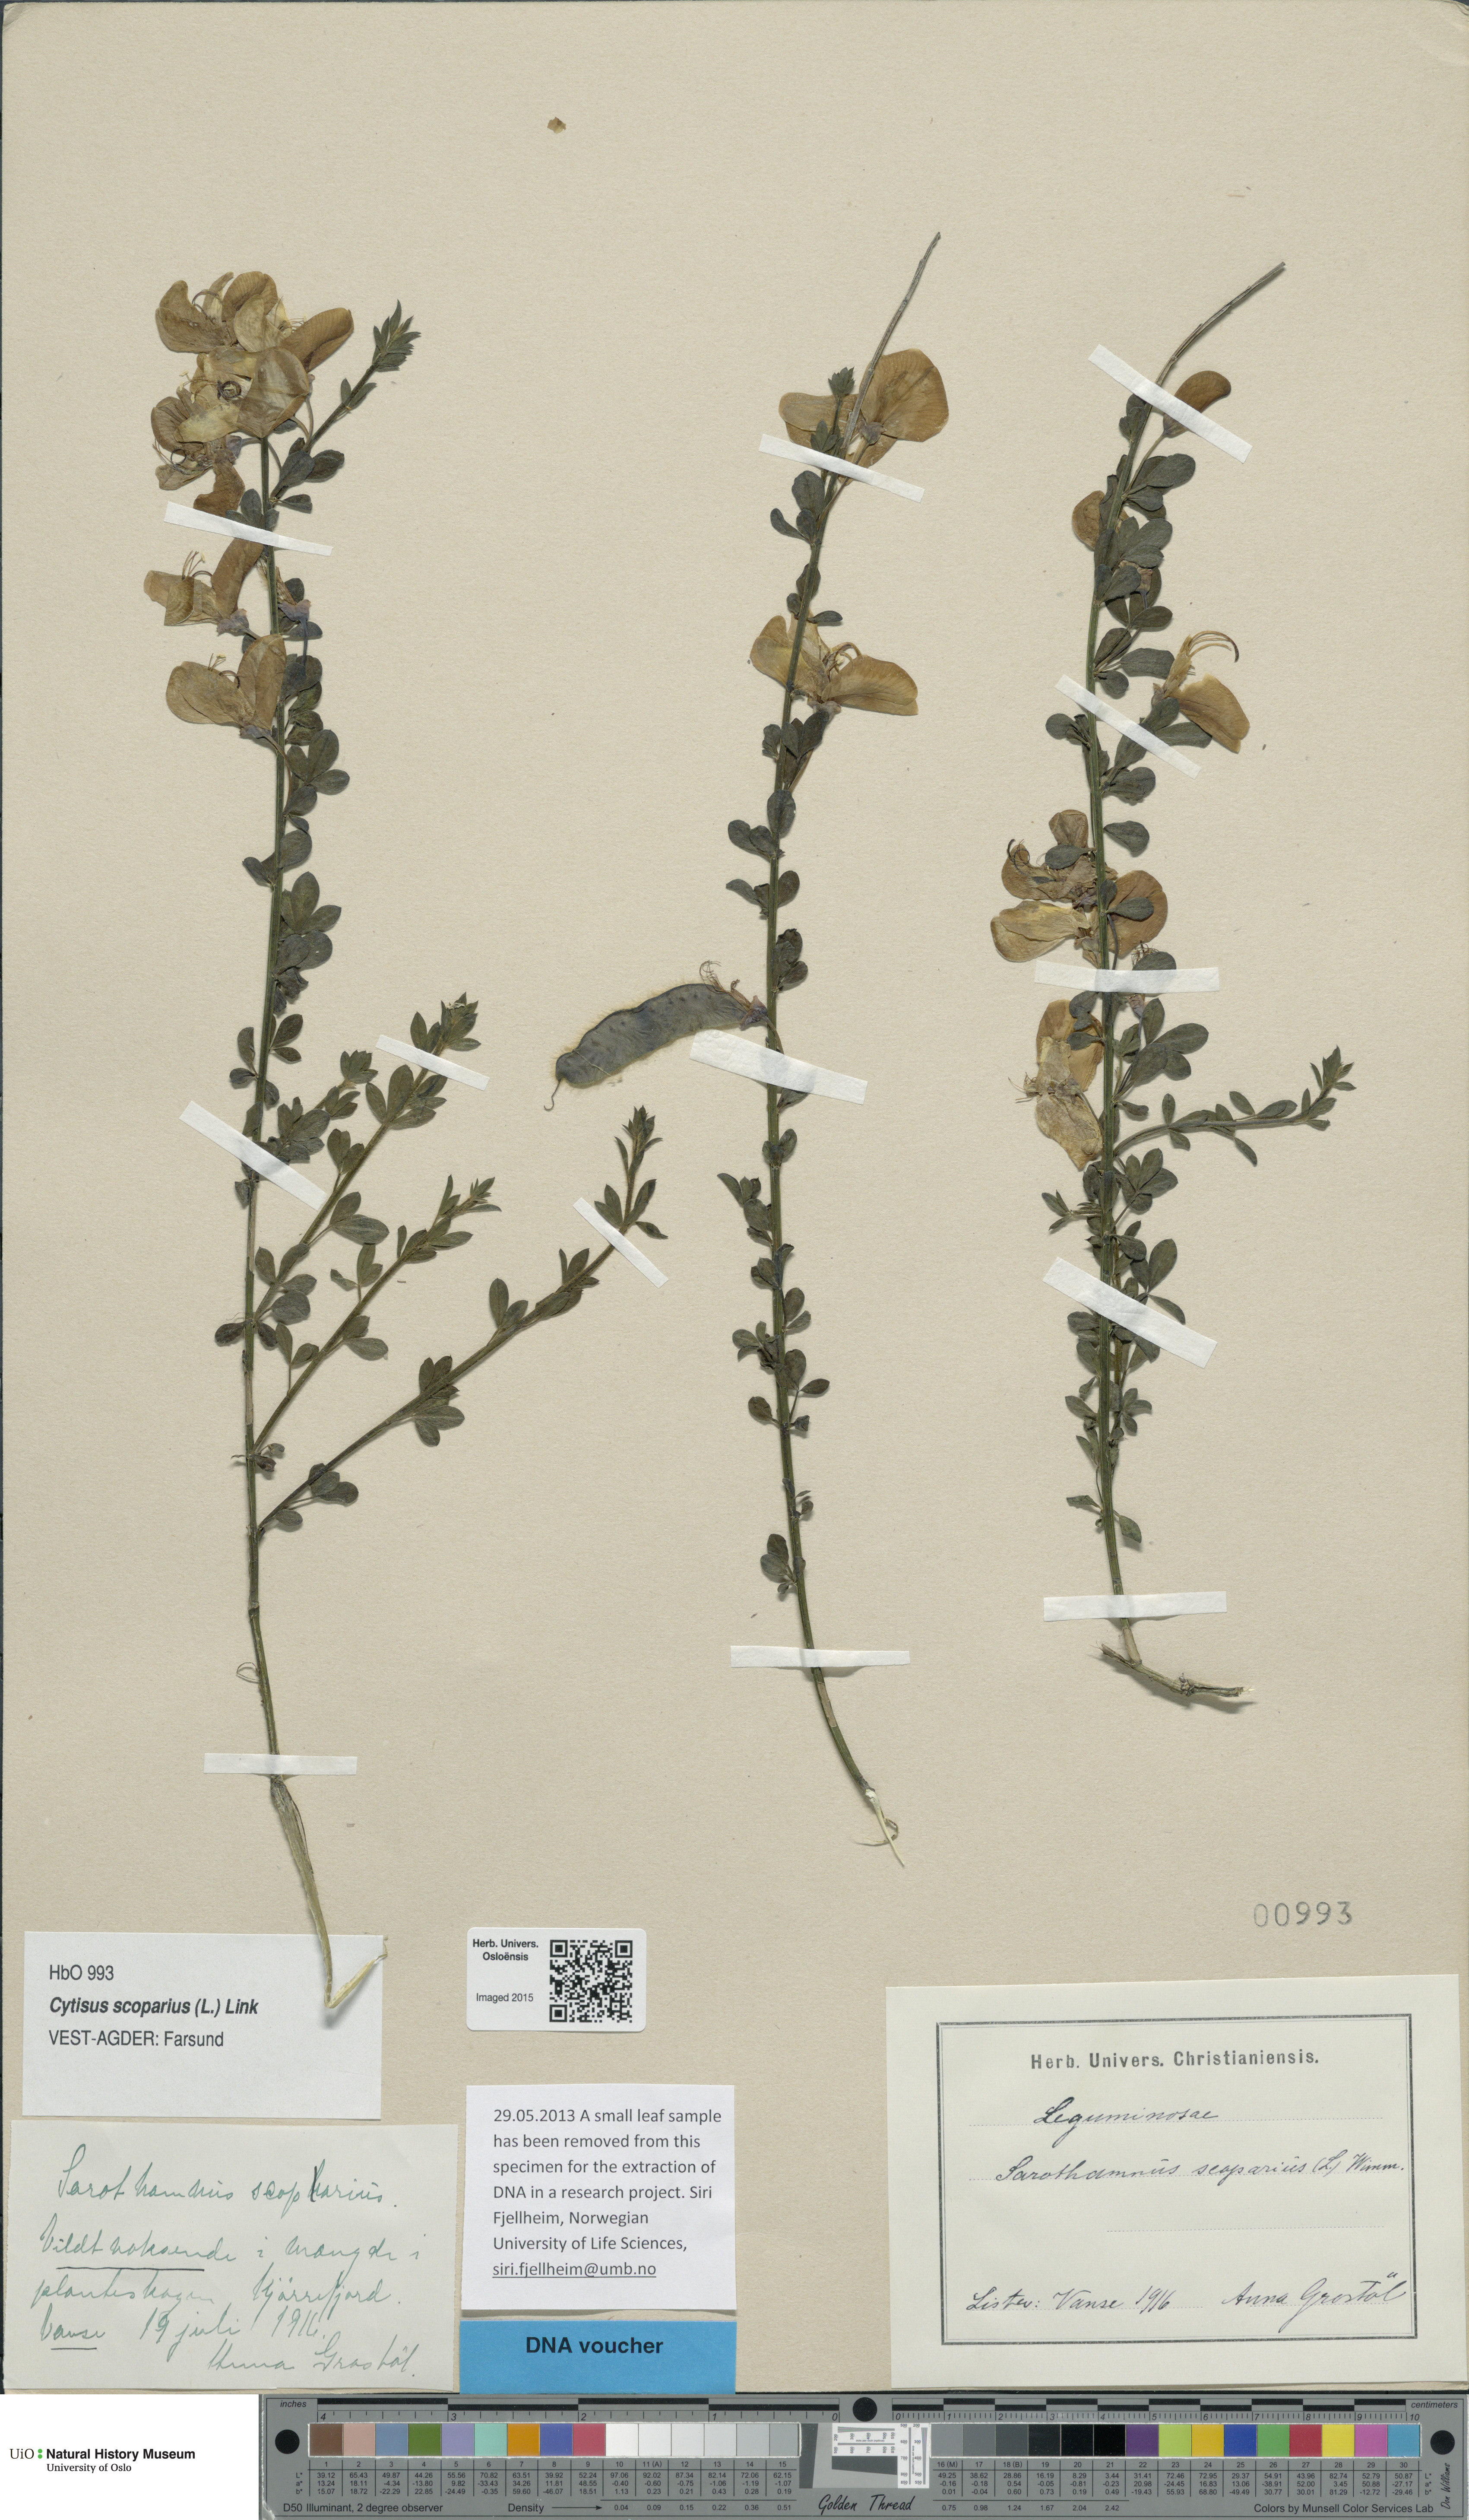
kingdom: Plantae
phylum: Tracheophyta
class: Magnoliopsida
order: Fabales
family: Fabaceae
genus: Cytisus
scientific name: Cytisus scoparius
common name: Scotch broom
